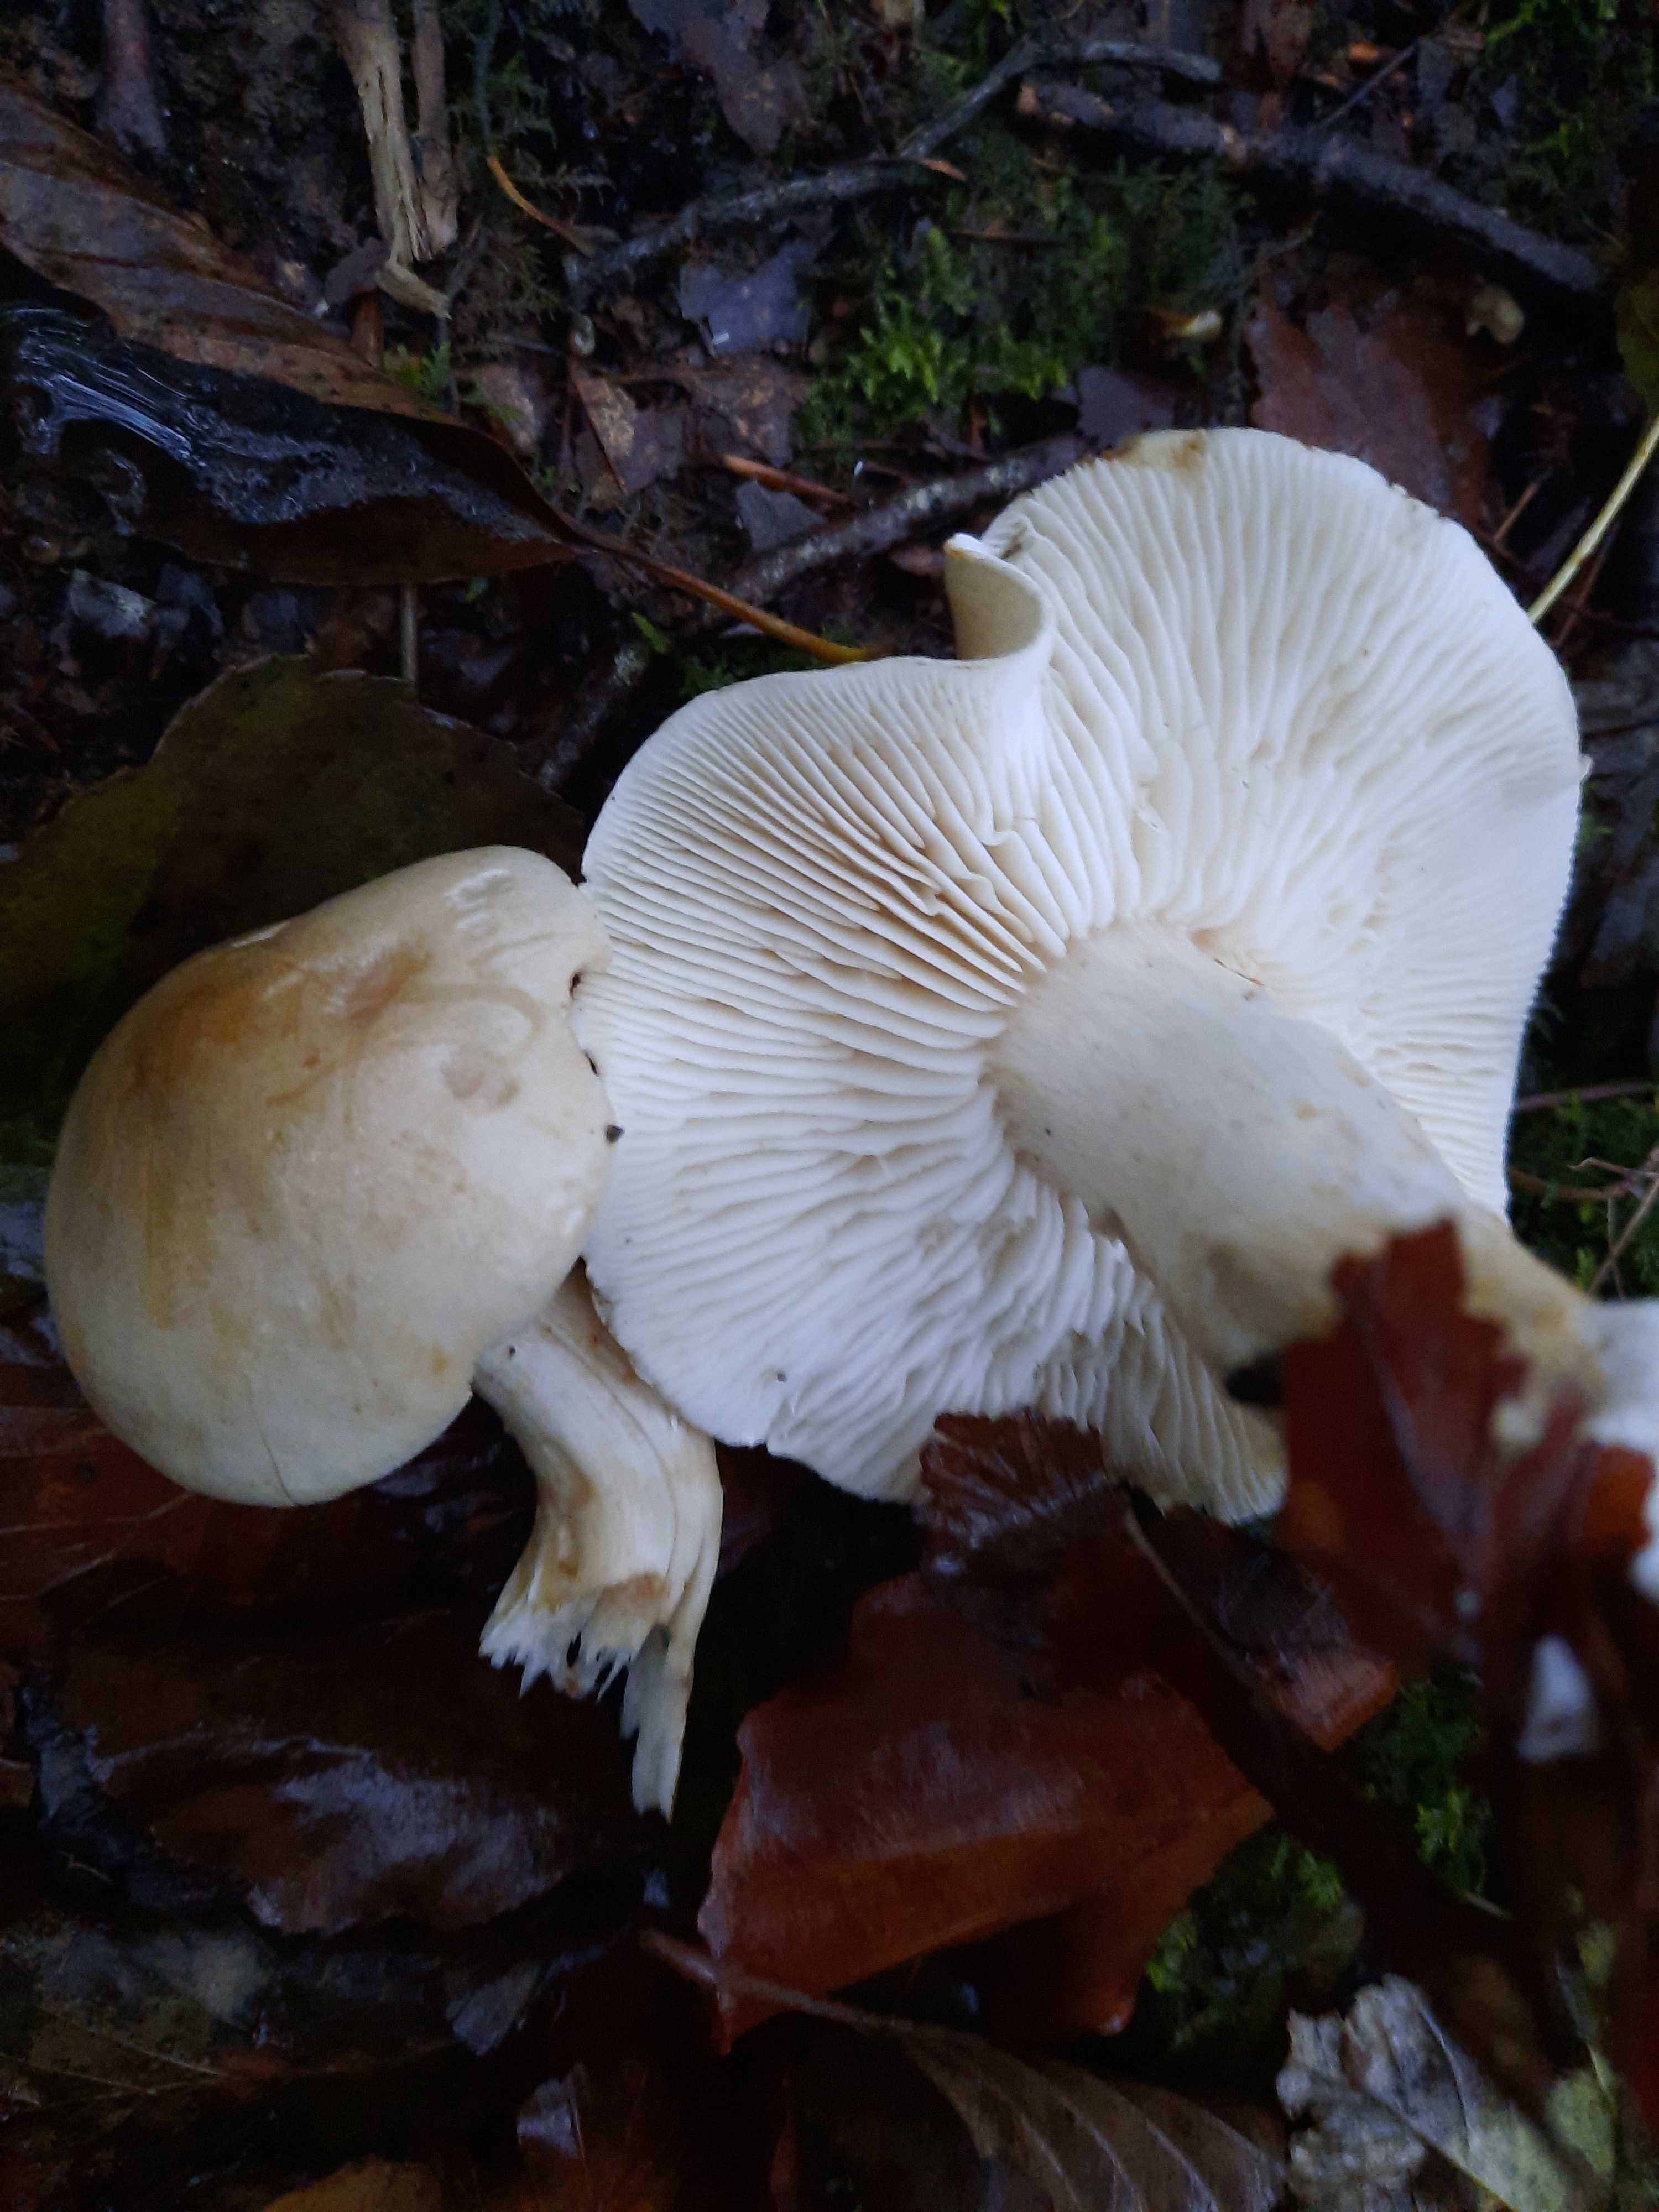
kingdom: Fungi
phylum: Basidiomycota
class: Agaricomycetes
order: Agaricales
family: Tricholomataceae
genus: Tricholoma
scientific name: Tricholoma lascivum
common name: stinkende ridderhat
